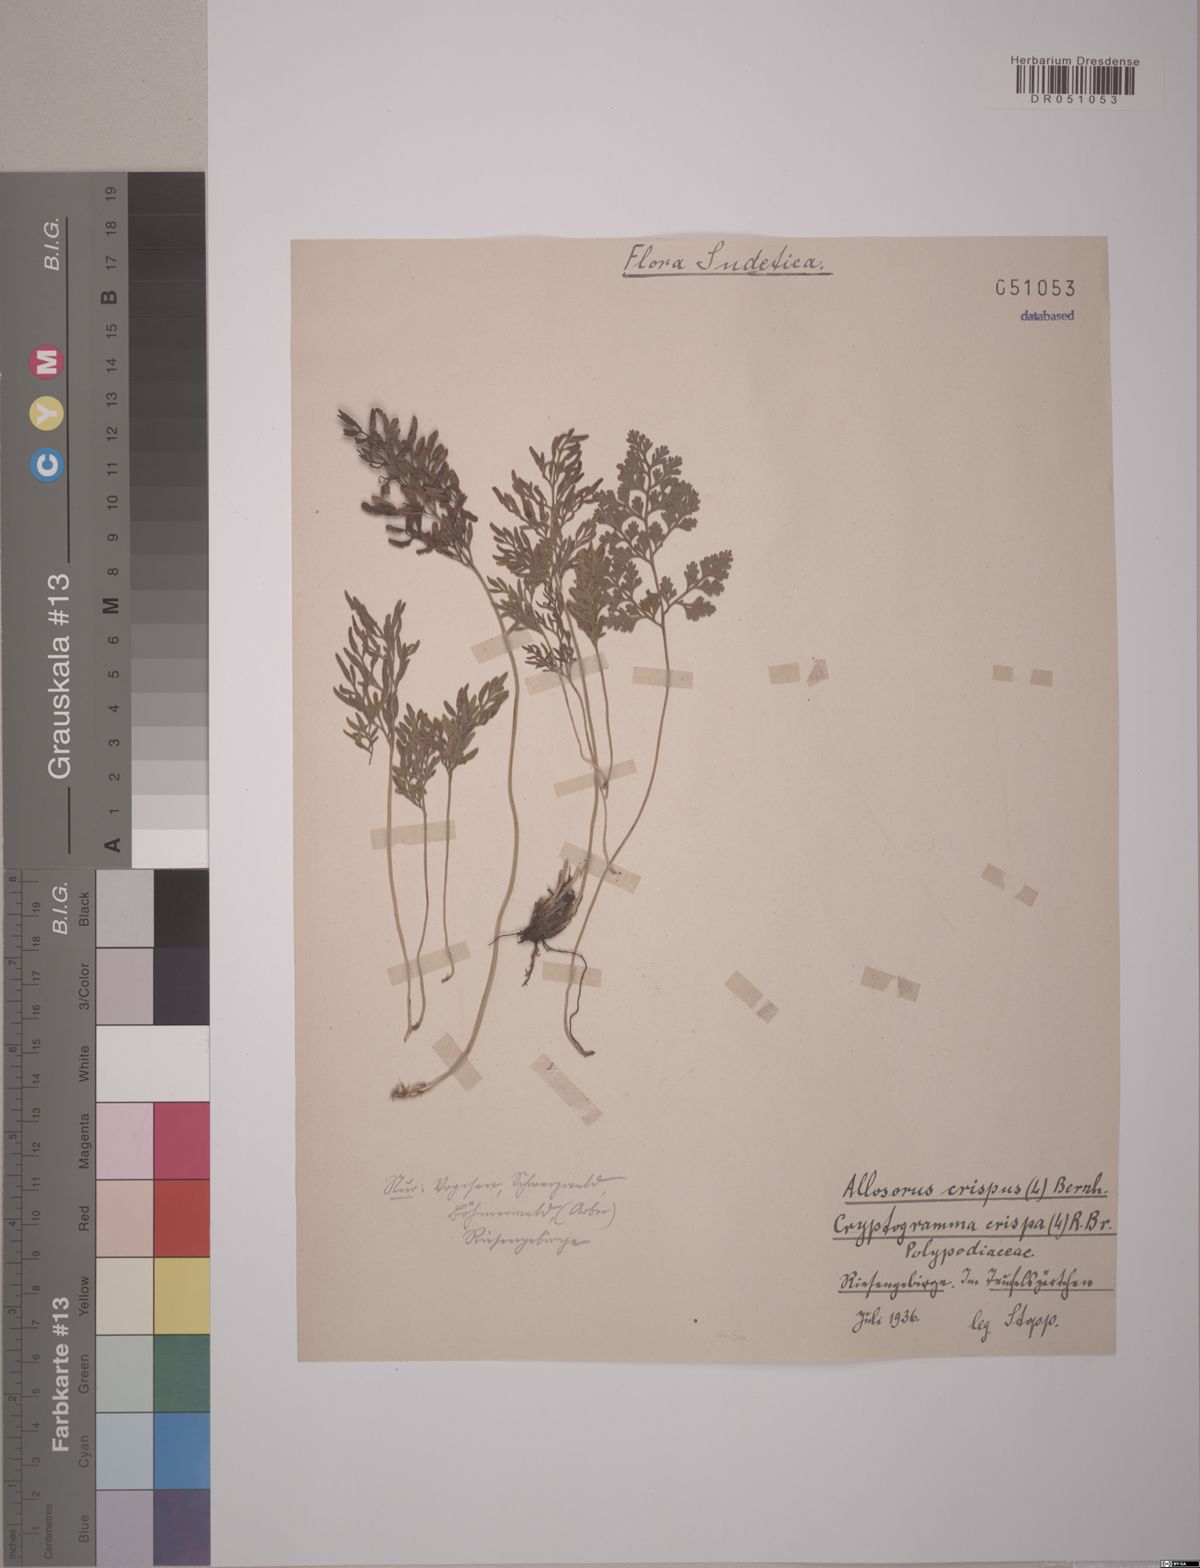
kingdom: Plantae
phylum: Tracheophyta
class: Polypodiopsida
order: Polypodiales
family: Pteridaceae
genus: Cryptogramma
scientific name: Cryptogramma crispa
